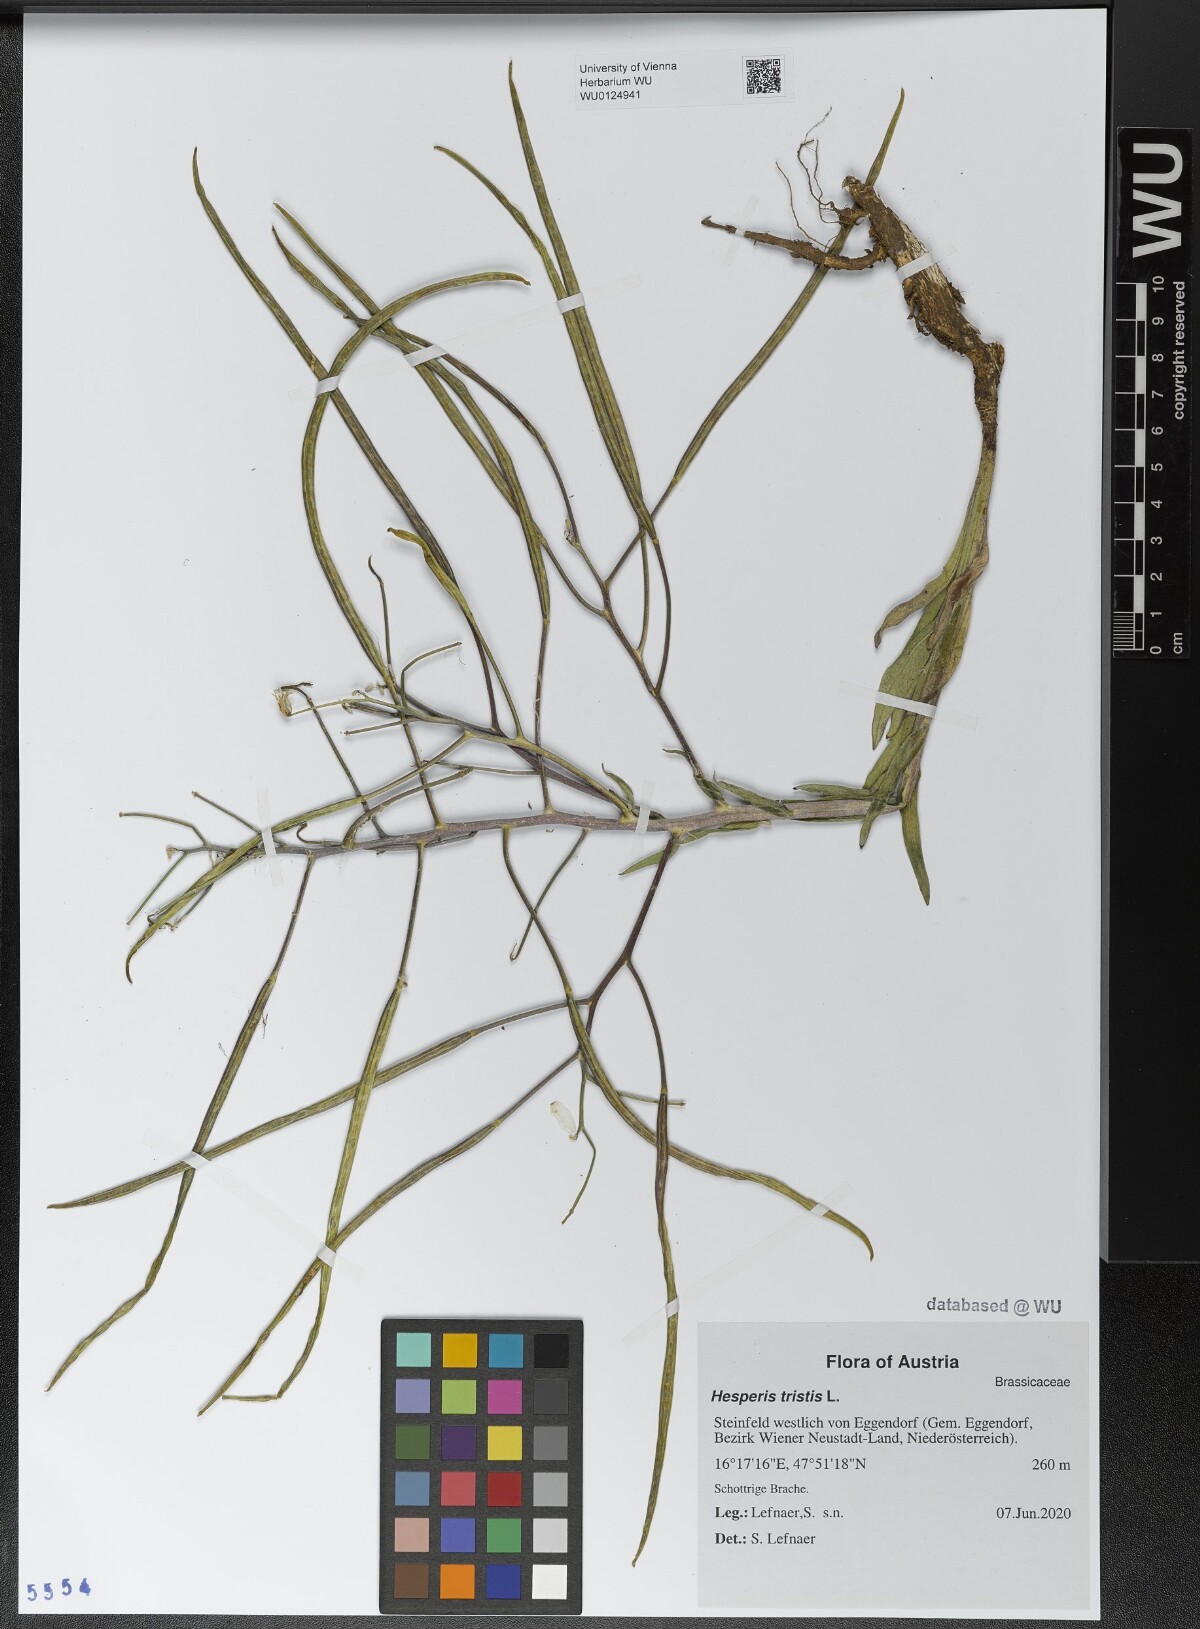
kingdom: Plantae
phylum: Tracheophyta
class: Magnoliopsida
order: Brassicales
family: Brassicaceae
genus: Hesperis
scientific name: Hesperis tristis
